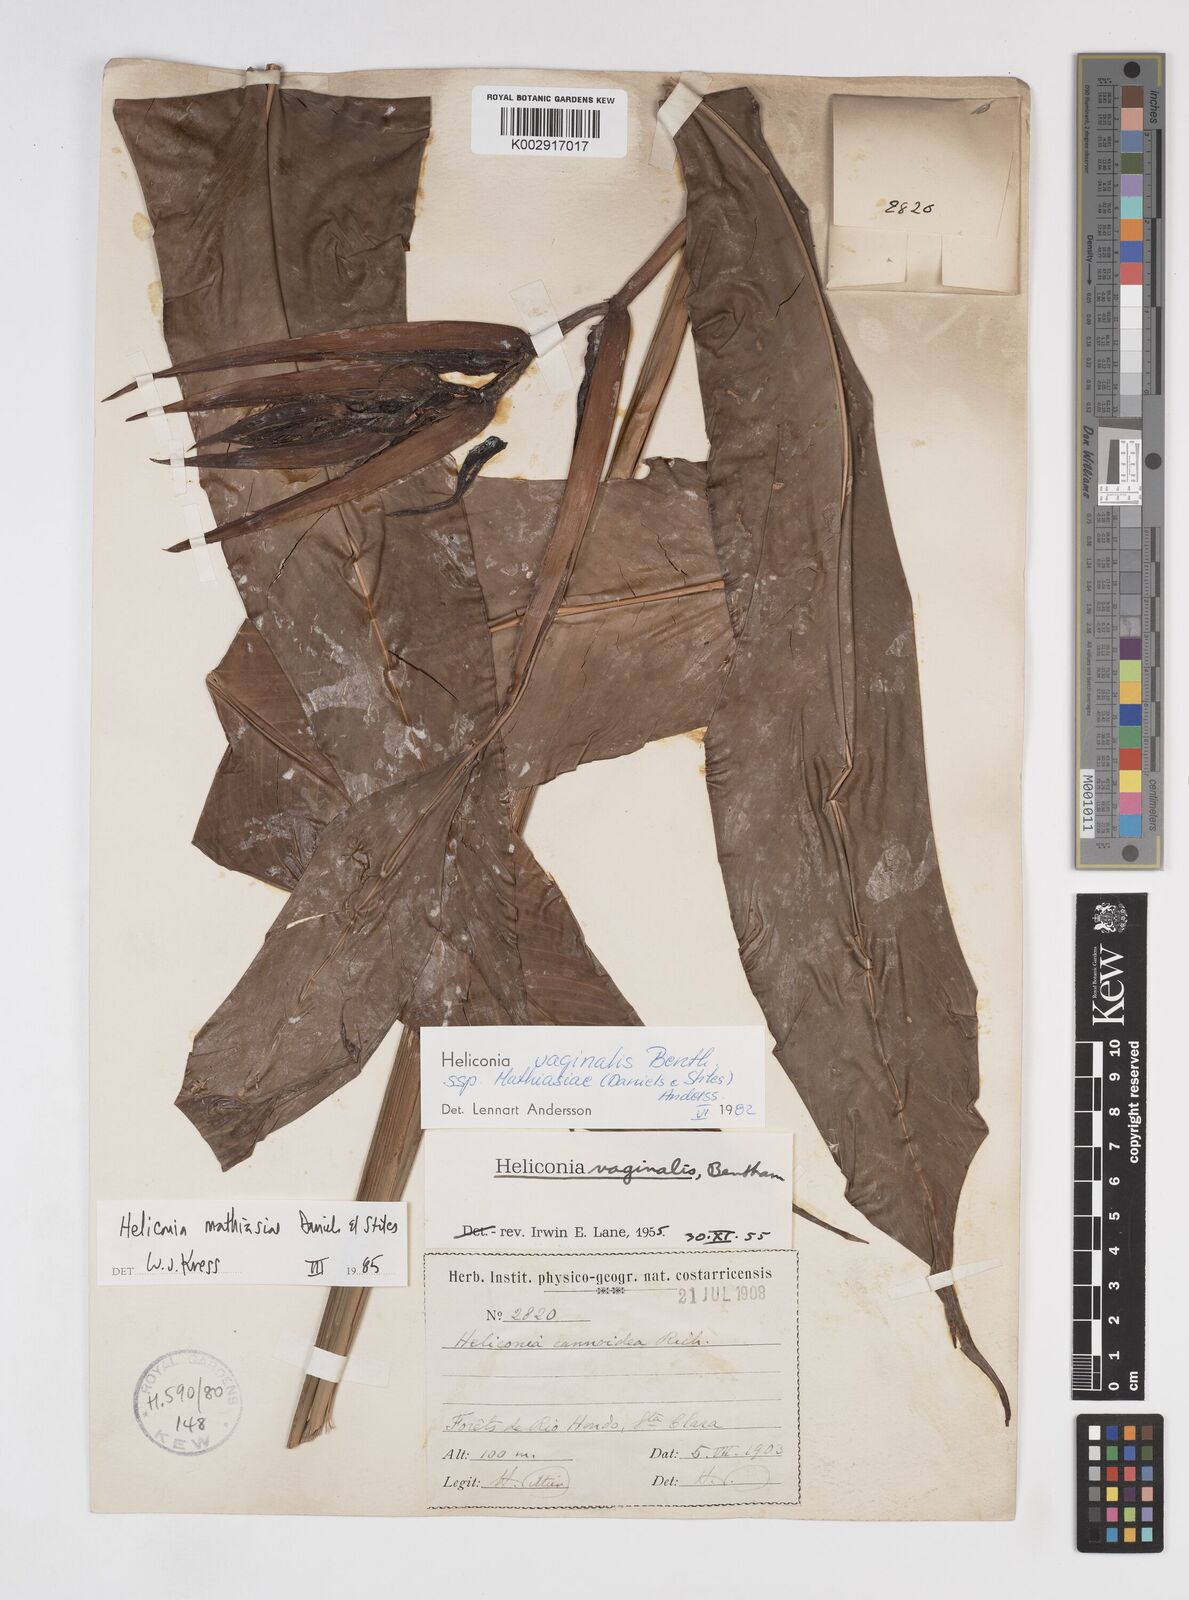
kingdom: Plantae
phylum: Tracheophyta
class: Liliopsida
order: Zingiberales
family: Heliconiaceae
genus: Heliconia
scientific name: Heliconia mathiasiae
